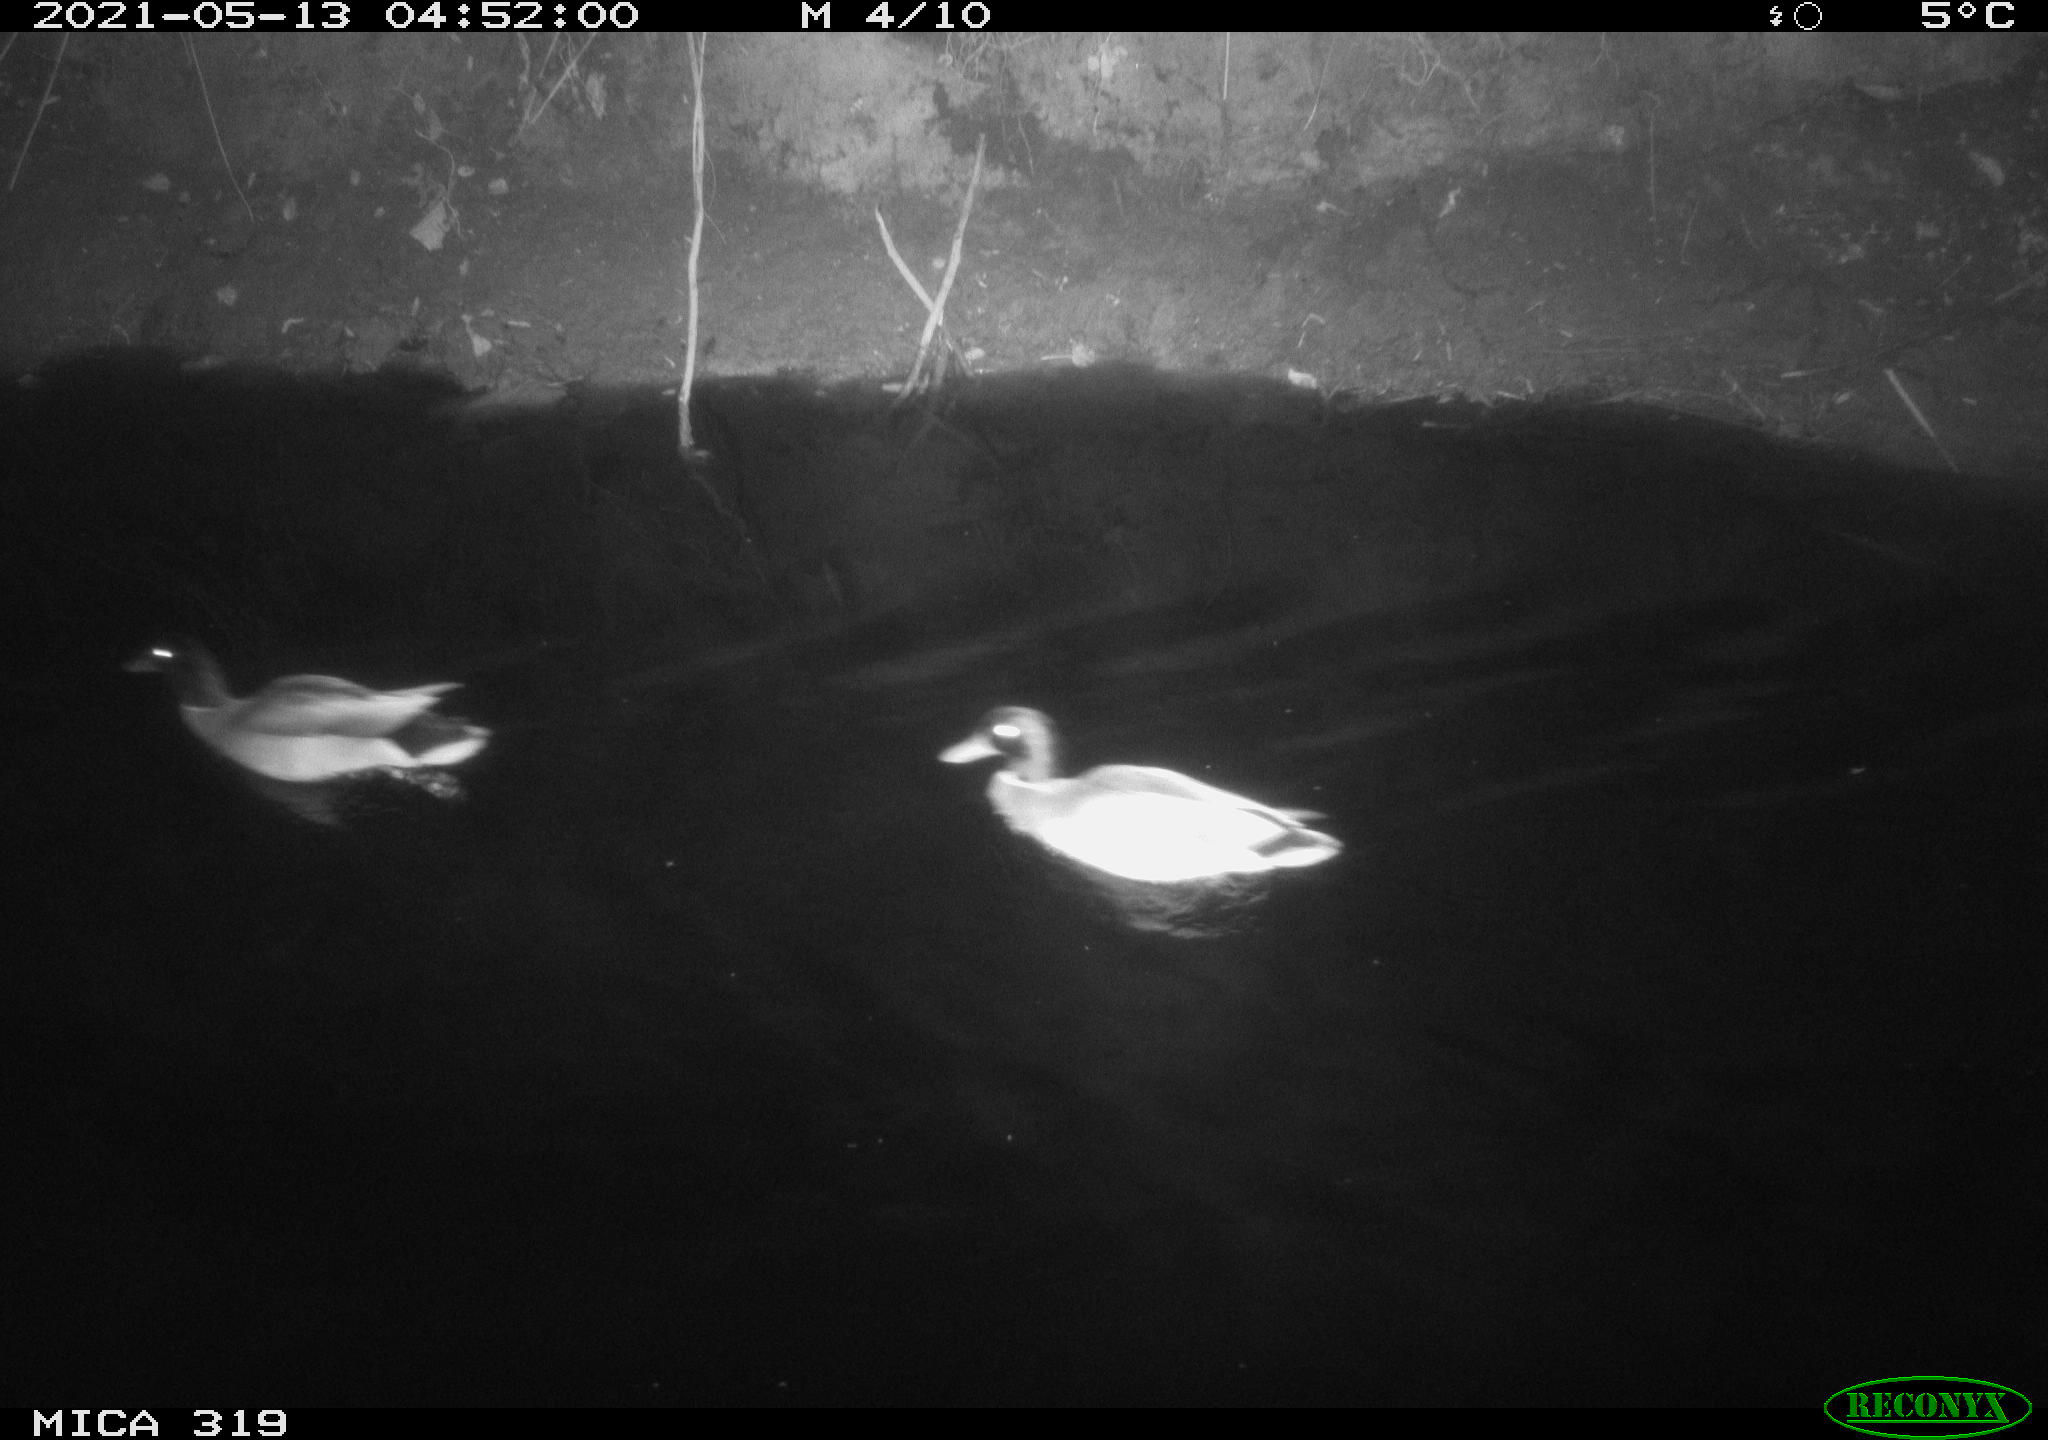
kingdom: Animalia
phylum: Chordata
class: Aves
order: Anseriformes
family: Anatidae
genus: Anas
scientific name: Anas platyrhynchos
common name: Mallard
